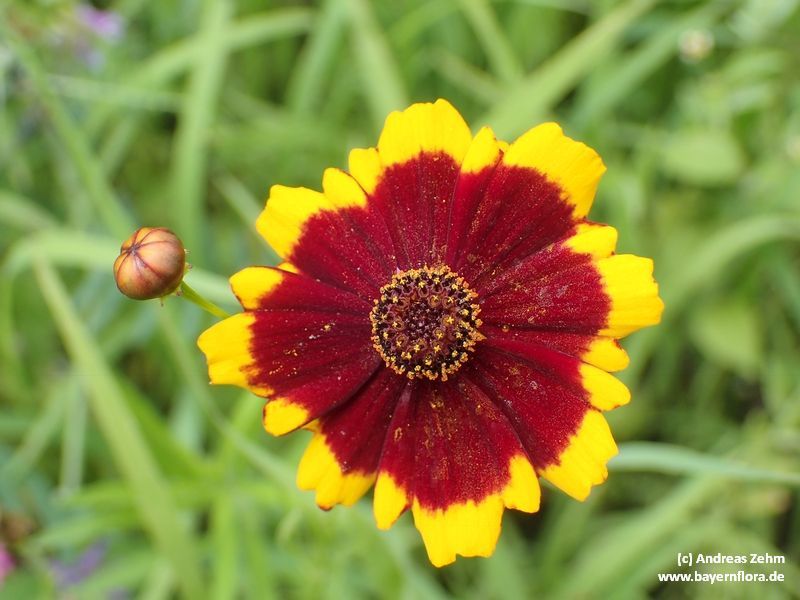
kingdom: Plantae
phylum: Tracheophyta
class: Magnoliopsida
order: Asterales
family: Asteraceae
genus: Coreopsis
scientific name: Coreopsis tinctoria
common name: Garden tickseed
